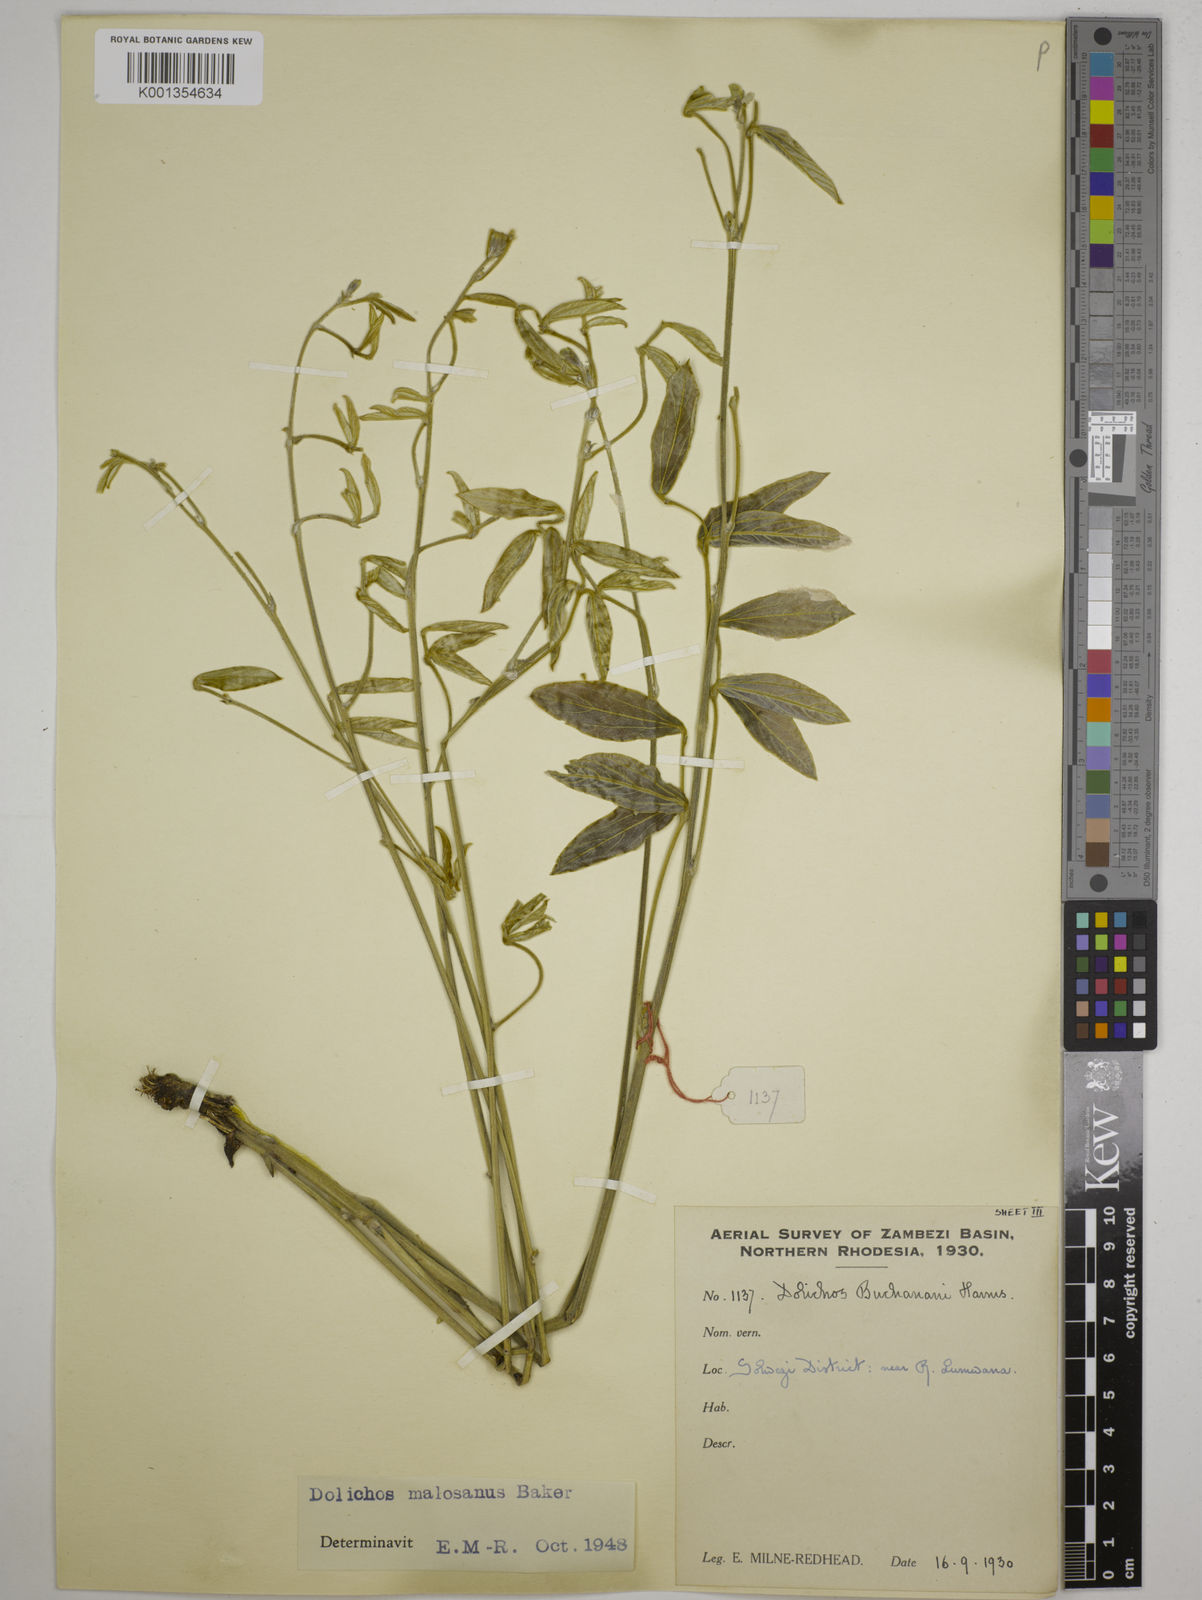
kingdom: Plantae
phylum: Tracheophyta
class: Magnoliopsida
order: Fabales
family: Fabaceae
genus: Dolichos
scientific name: Dolichos kilimandscharicus
